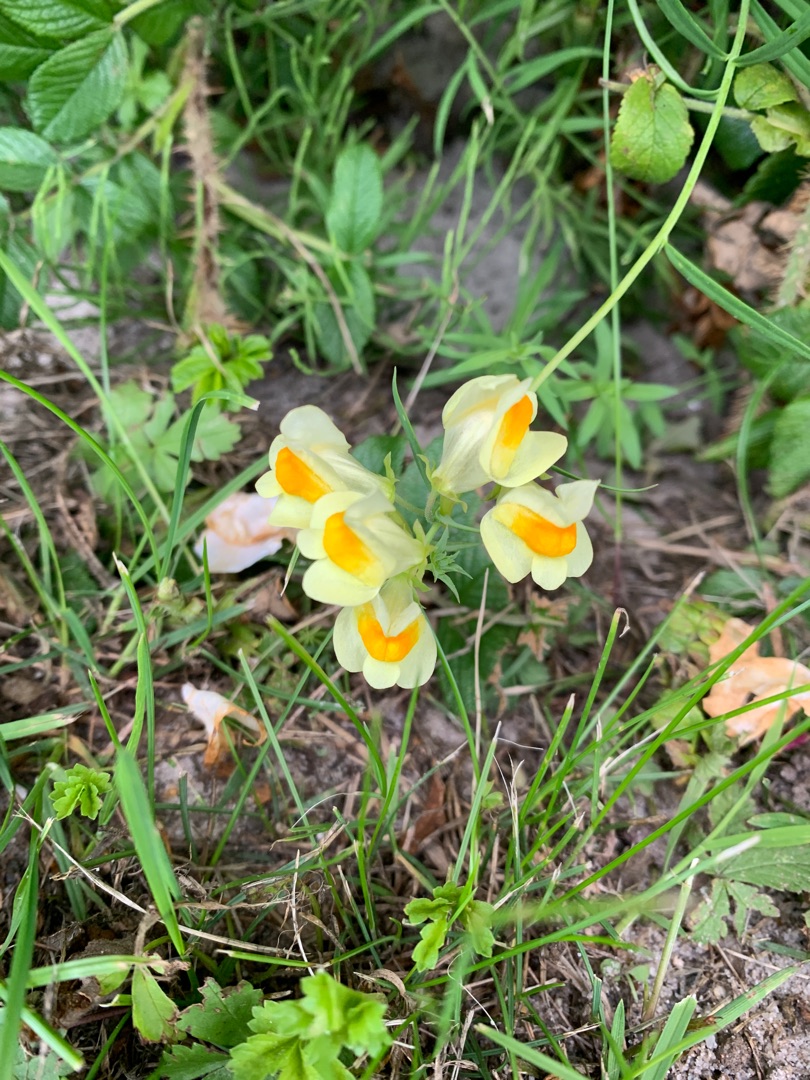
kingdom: Plantae
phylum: Tracheophyta
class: Magnoliopsida
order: Lamiales
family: Plantaginaceae
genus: Linaria
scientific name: Linaria vulgaris
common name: Almindelig torskemund
